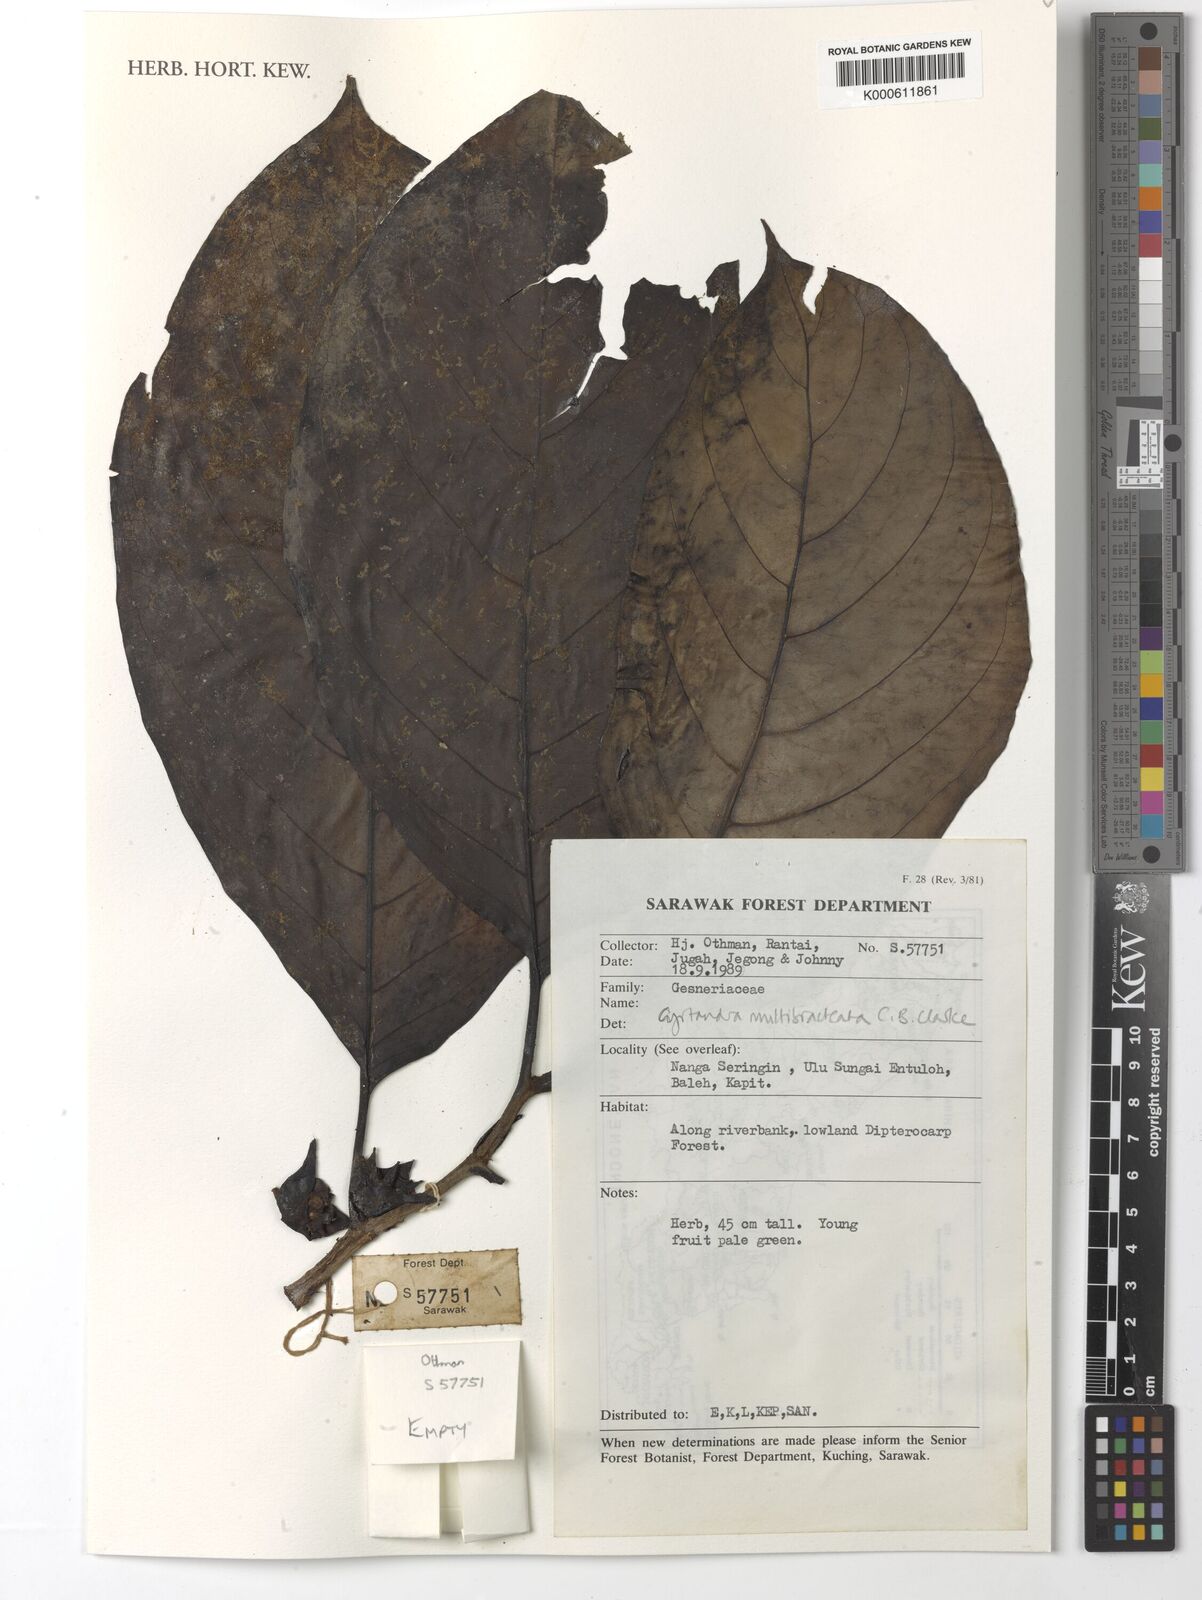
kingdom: Plantae
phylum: Tracheophyta
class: Magnoliopsida
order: Lamiales
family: Gesneriaceae
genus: Cyrtandra
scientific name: Cyrtandra multibracteata
